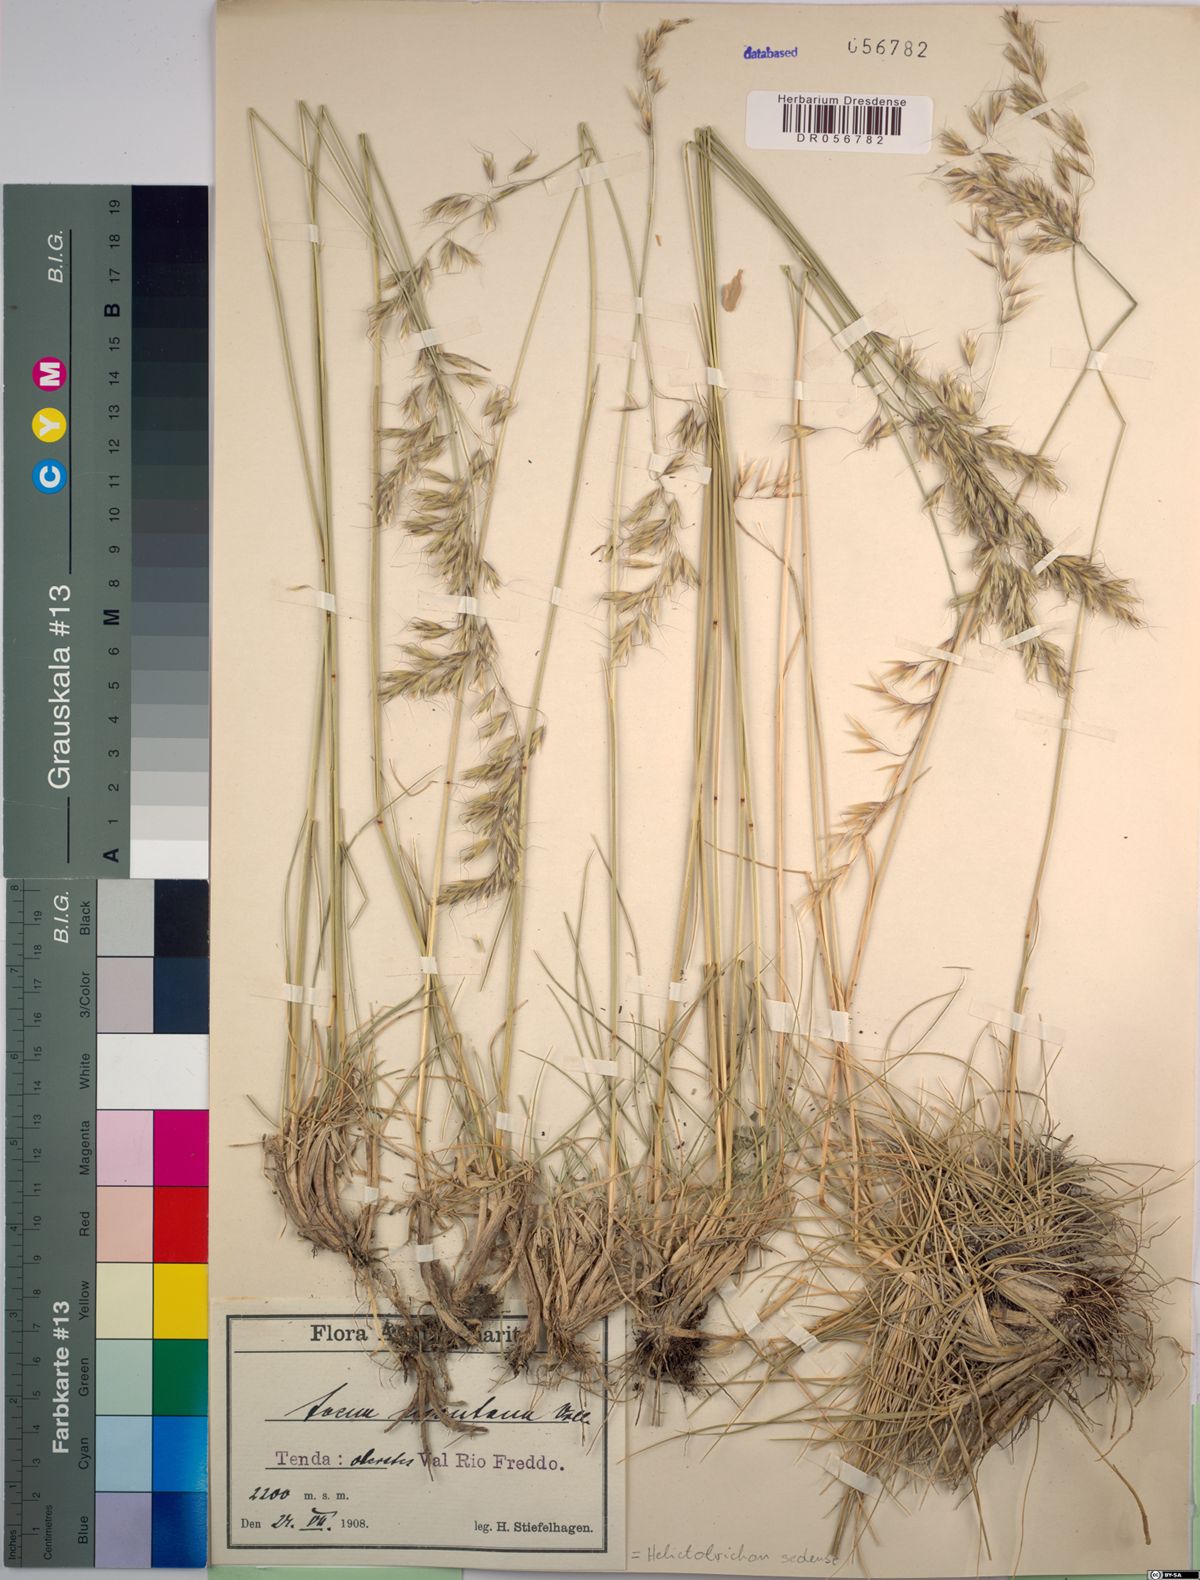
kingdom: Plantae
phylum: Tracheophyta
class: Liliopsida
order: Poales
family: Poaceae
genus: Helictotrichon
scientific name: Helictotrichon sedenense
